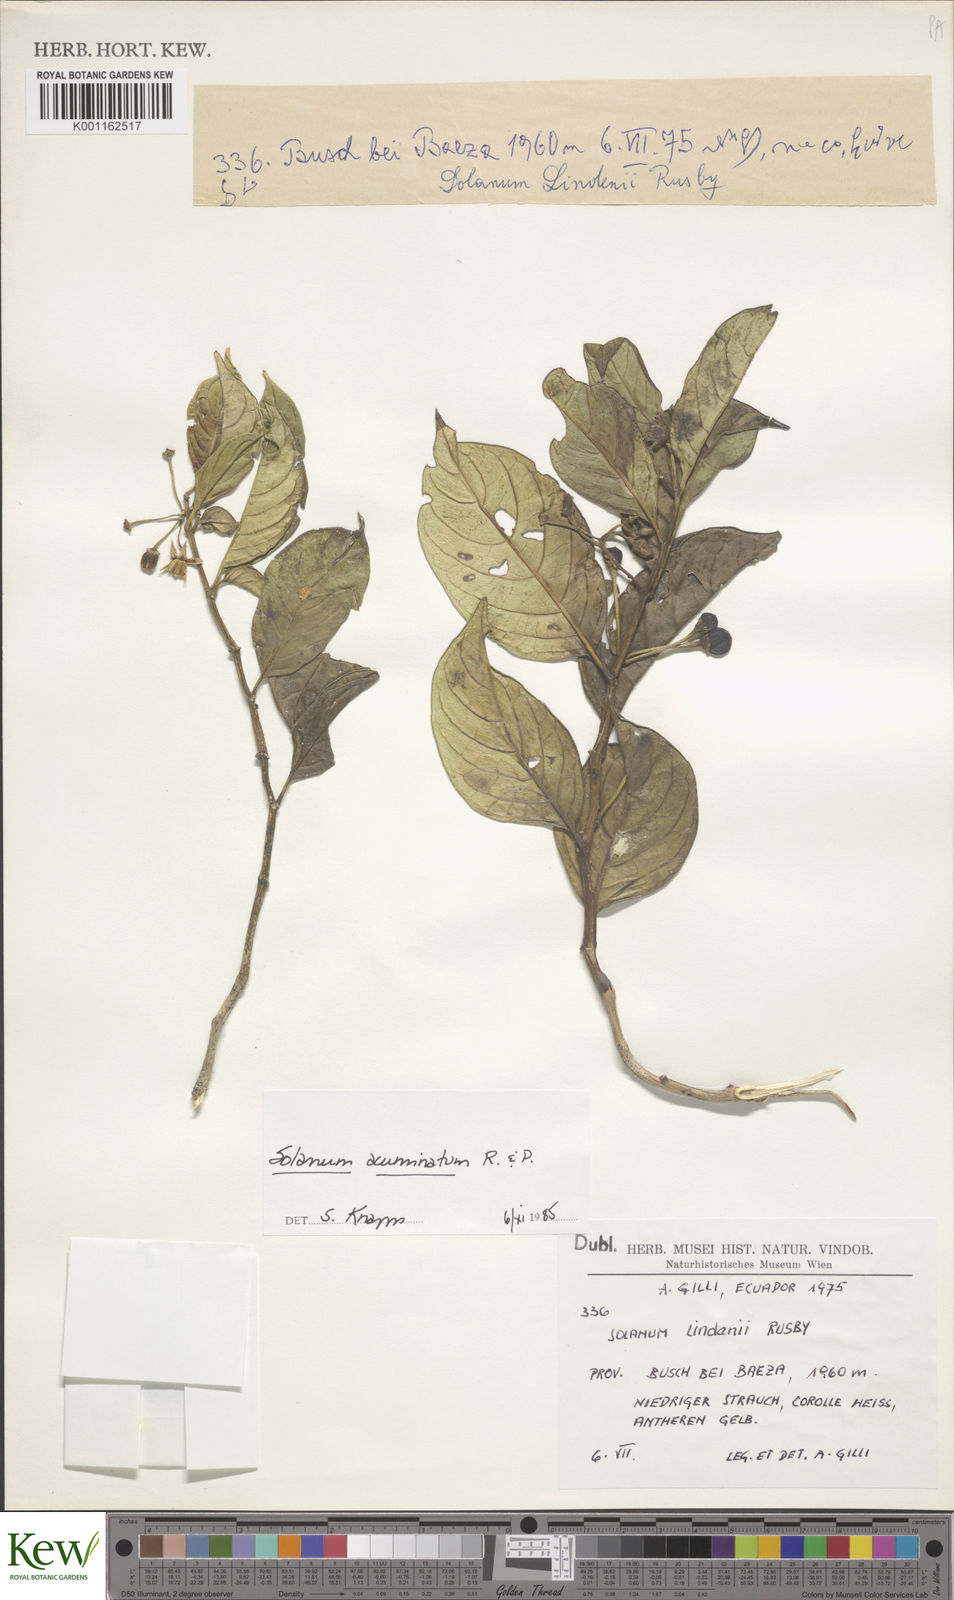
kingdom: Plantae
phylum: Tracheophyta
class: Magnoliopsida
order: Solanales
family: Solanaceae
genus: Solanum
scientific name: Solanum acuminatum
